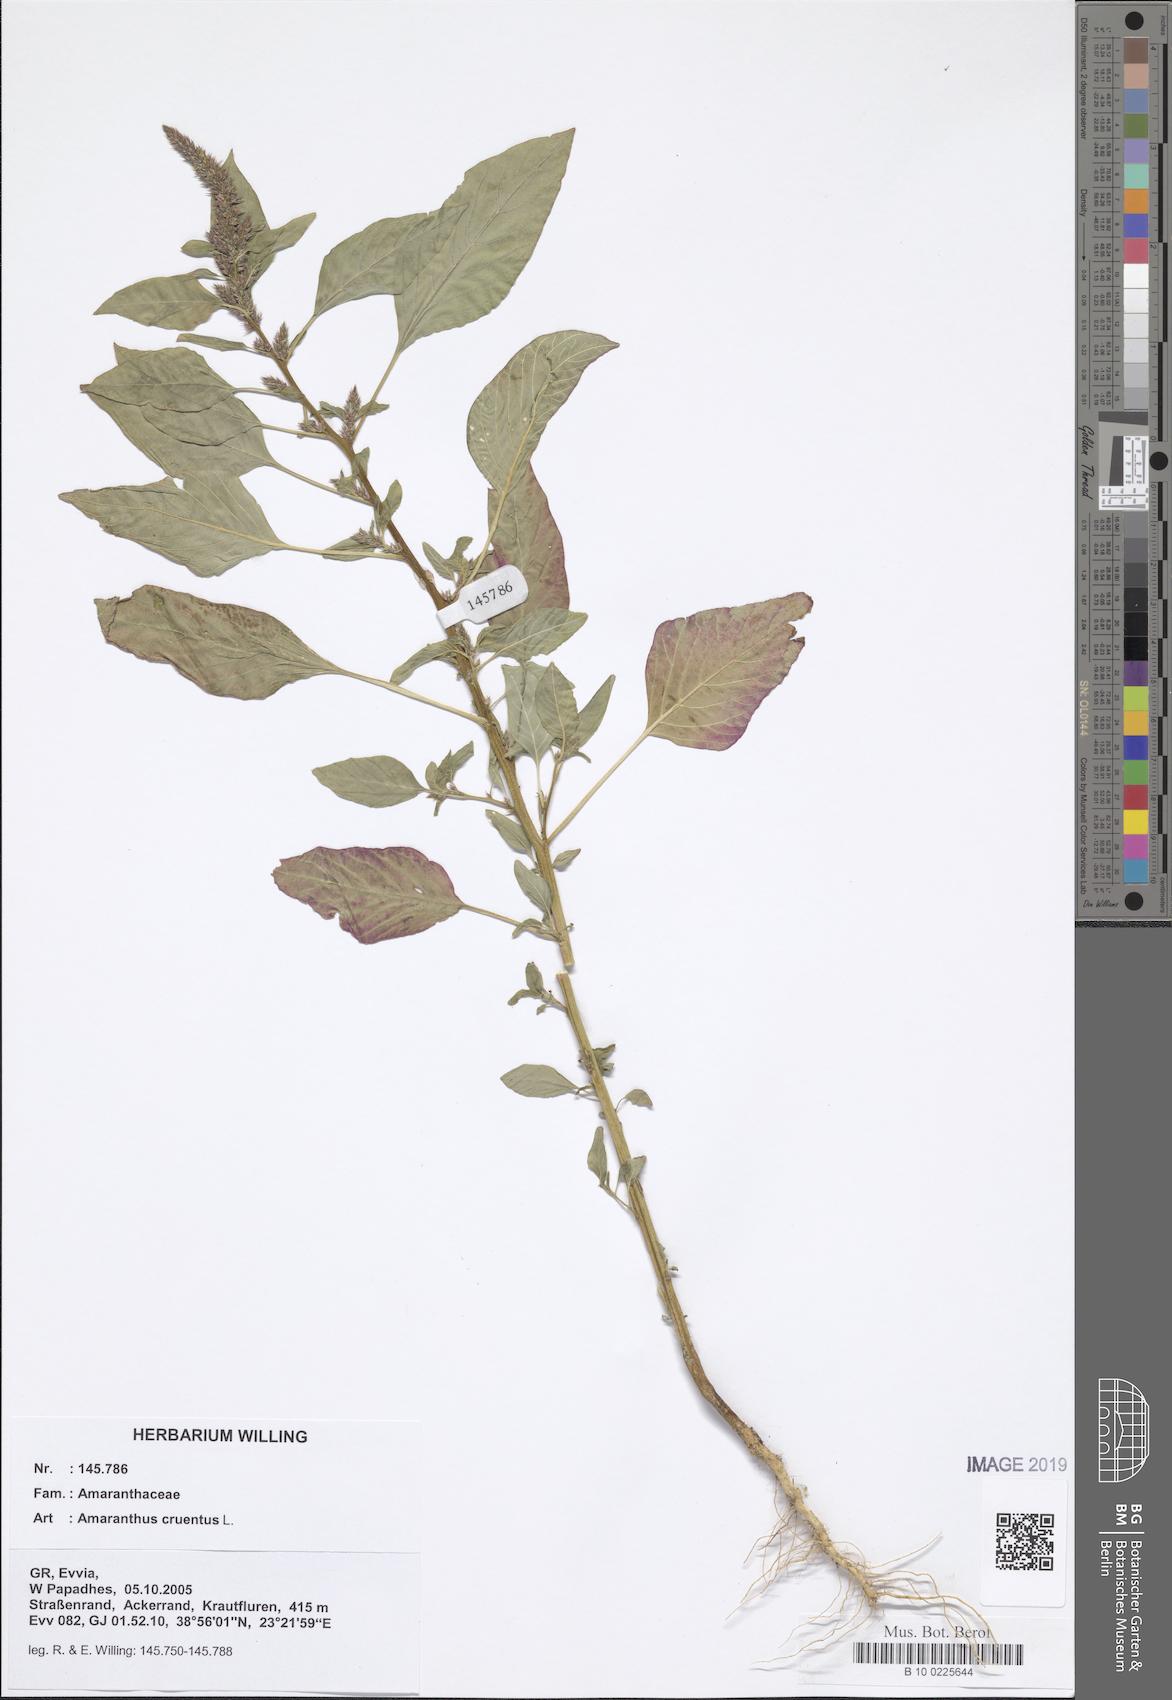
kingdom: Plantae
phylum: Tracheophyta
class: Magnoliopsida
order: Caryophyllales
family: Amaranthaceae
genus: Amaranthus
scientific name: Amaranthus cruentus
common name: Purple amaranth
